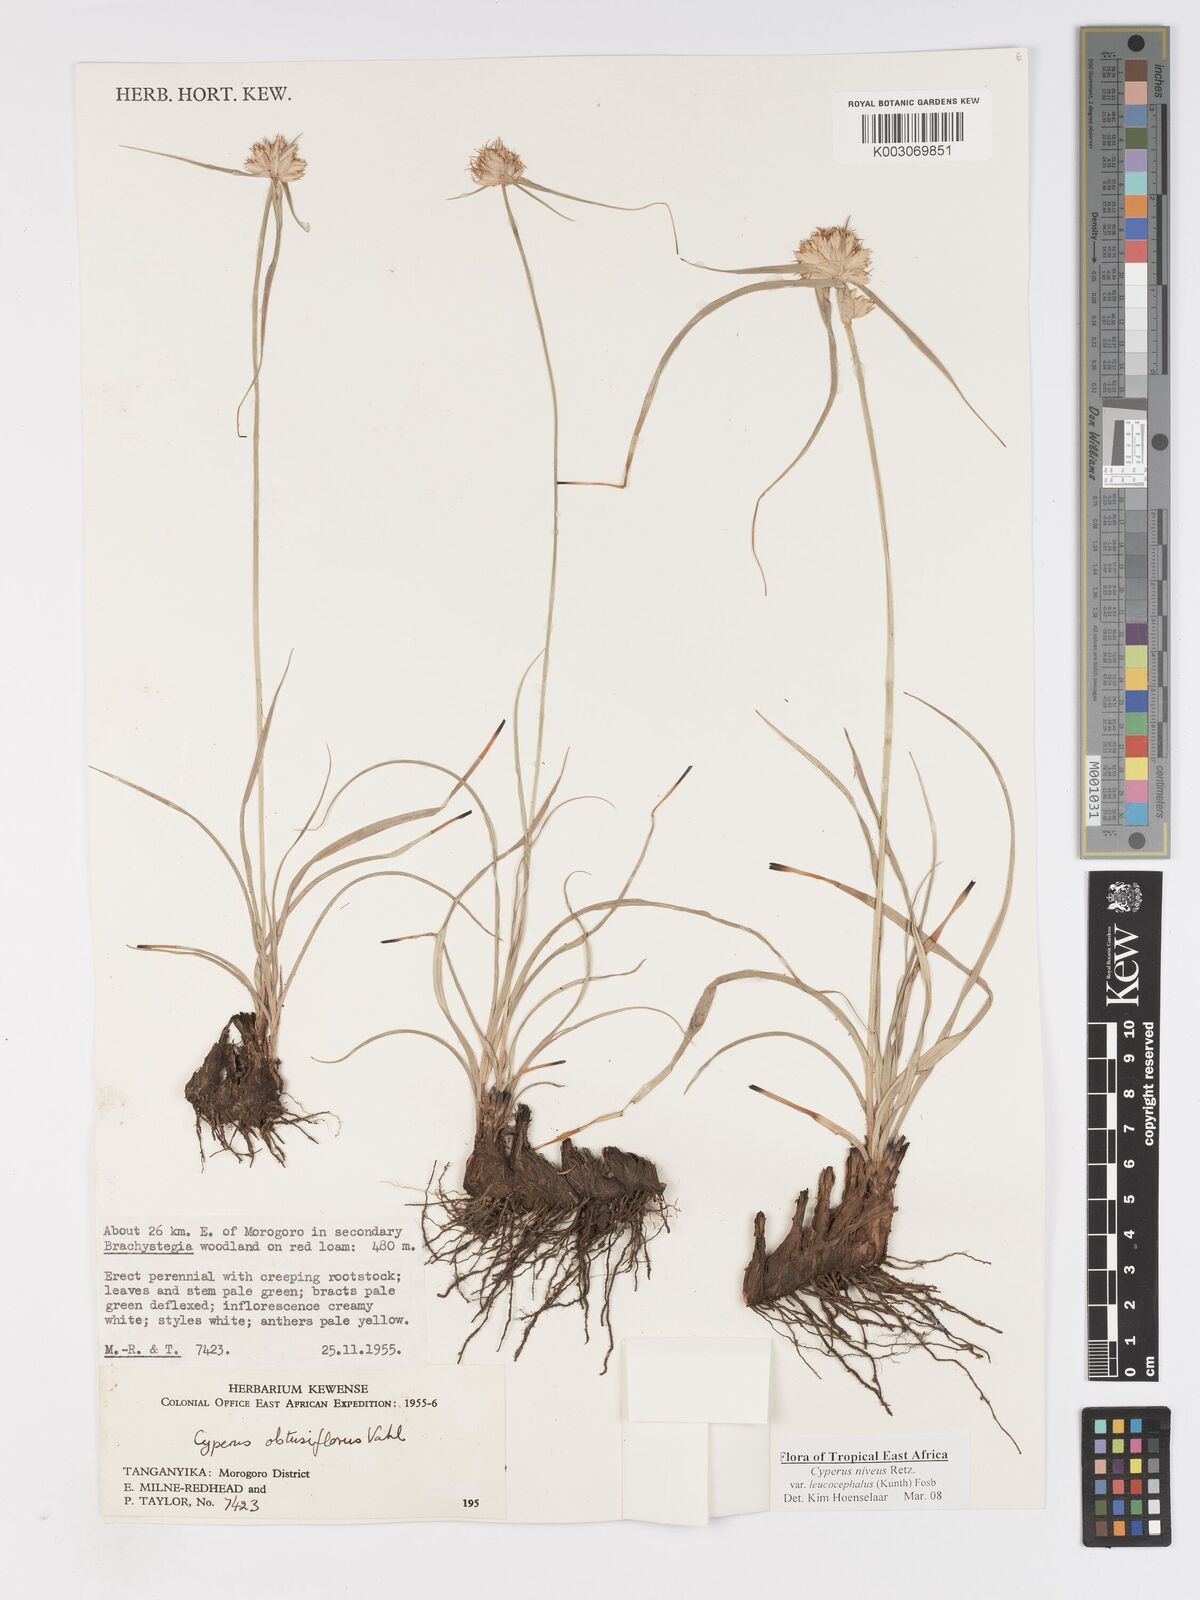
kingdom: Plantae
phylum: Tracheophyta
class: Liliopsida
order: Poales
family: Cyperaceae
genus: Cyperus
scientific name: Cyperus niveus
